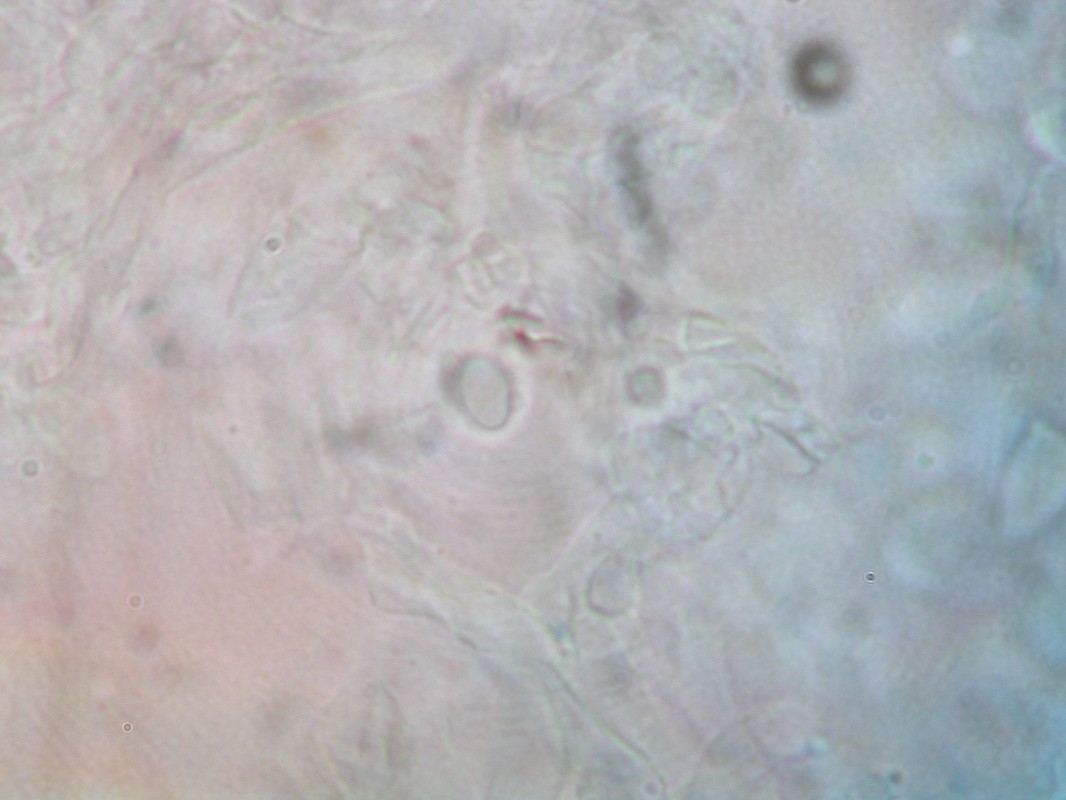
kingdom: Fungi
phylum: Basidiomycota
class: Agaricomycetes
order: Agaricales
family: Clavariaceae
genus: Clavulinopsis
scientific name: Clavulinopsis luteoalba
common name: abrikos-køllesvamp
